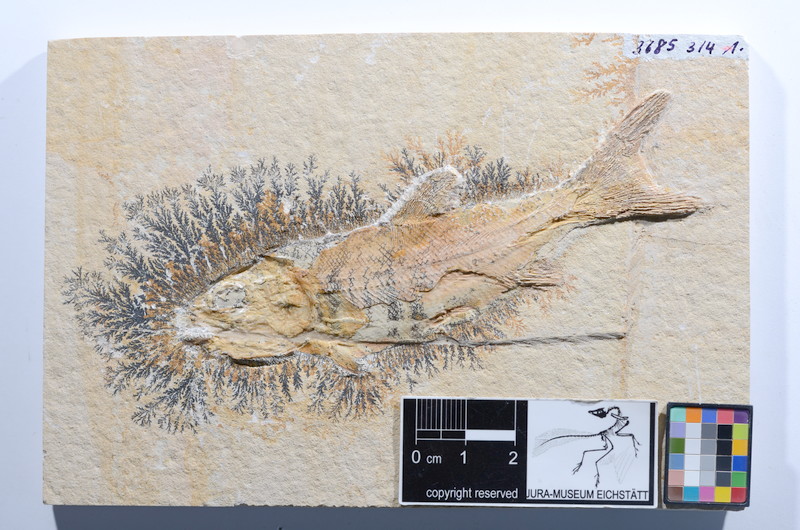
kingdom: Animalia
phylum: Chordata
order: Amiiformes
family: Caturidae
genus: Caturus
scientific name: Caturus furcatus
